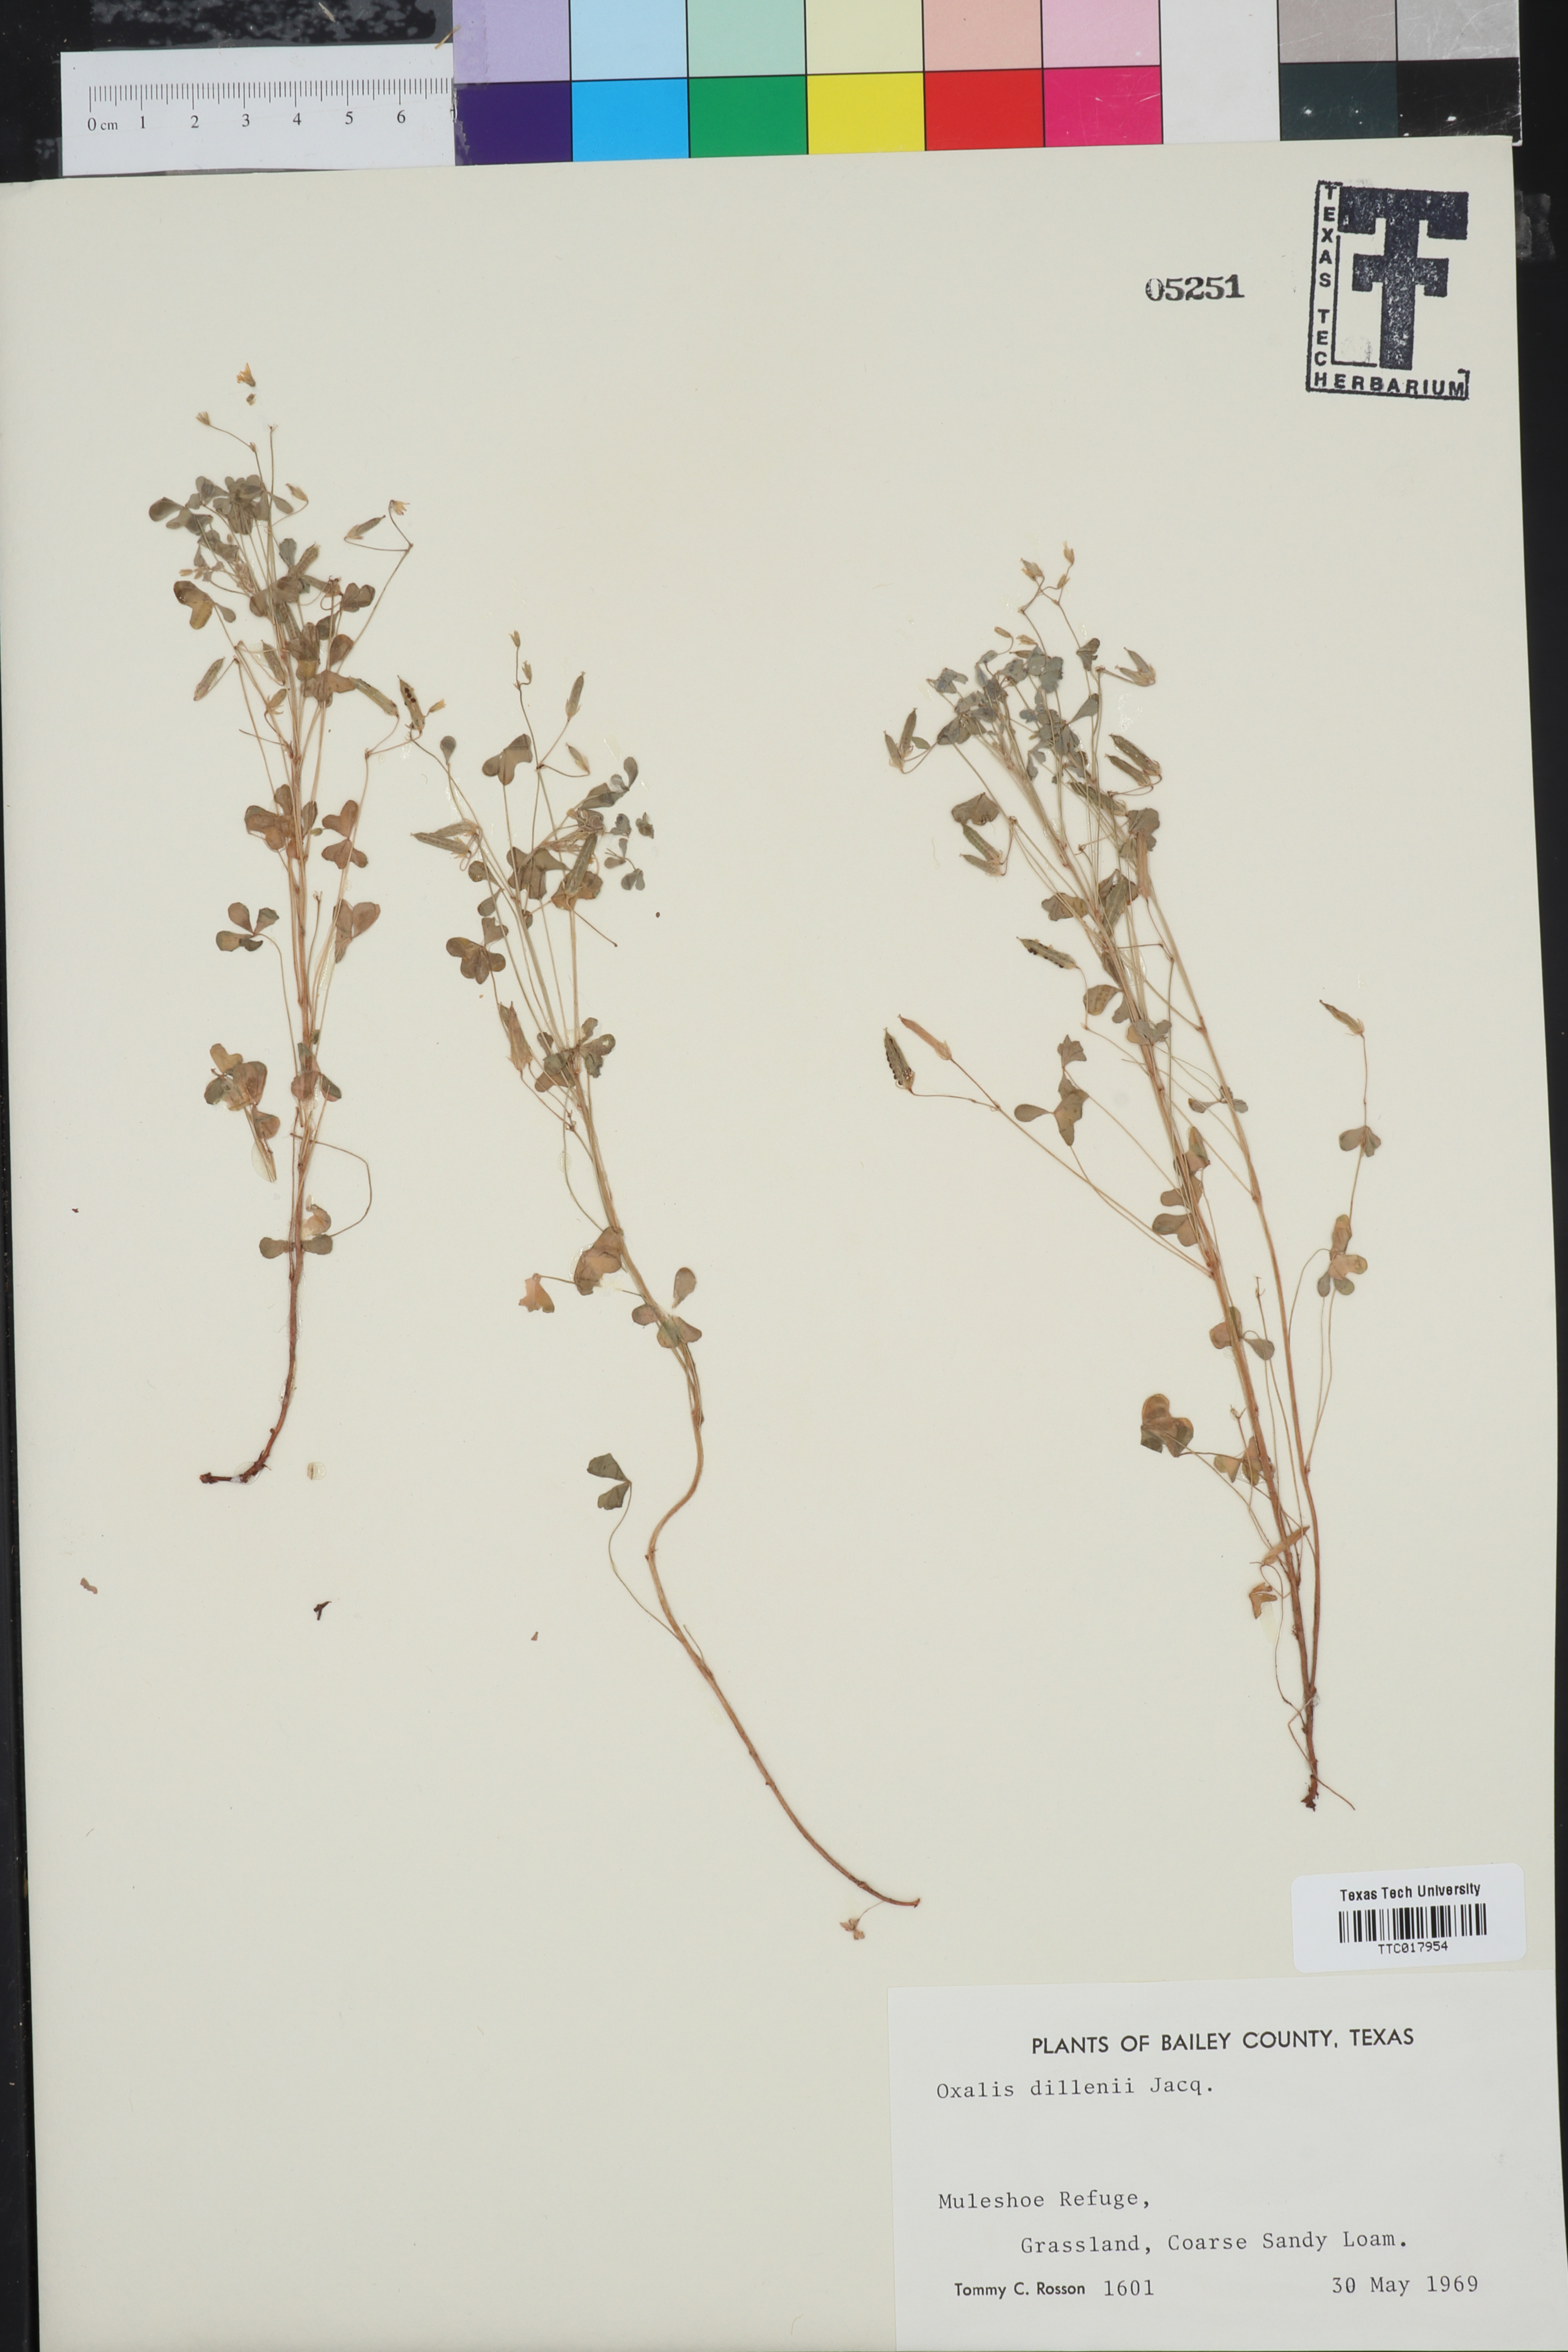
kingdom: Plantae
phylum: Tracheophyta
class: Magnoliopsida
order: Oxalidales
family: Oxalidaceae
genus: Oxalis
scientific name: Oxalis dillenii
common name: Sussex yellow-sorrel
